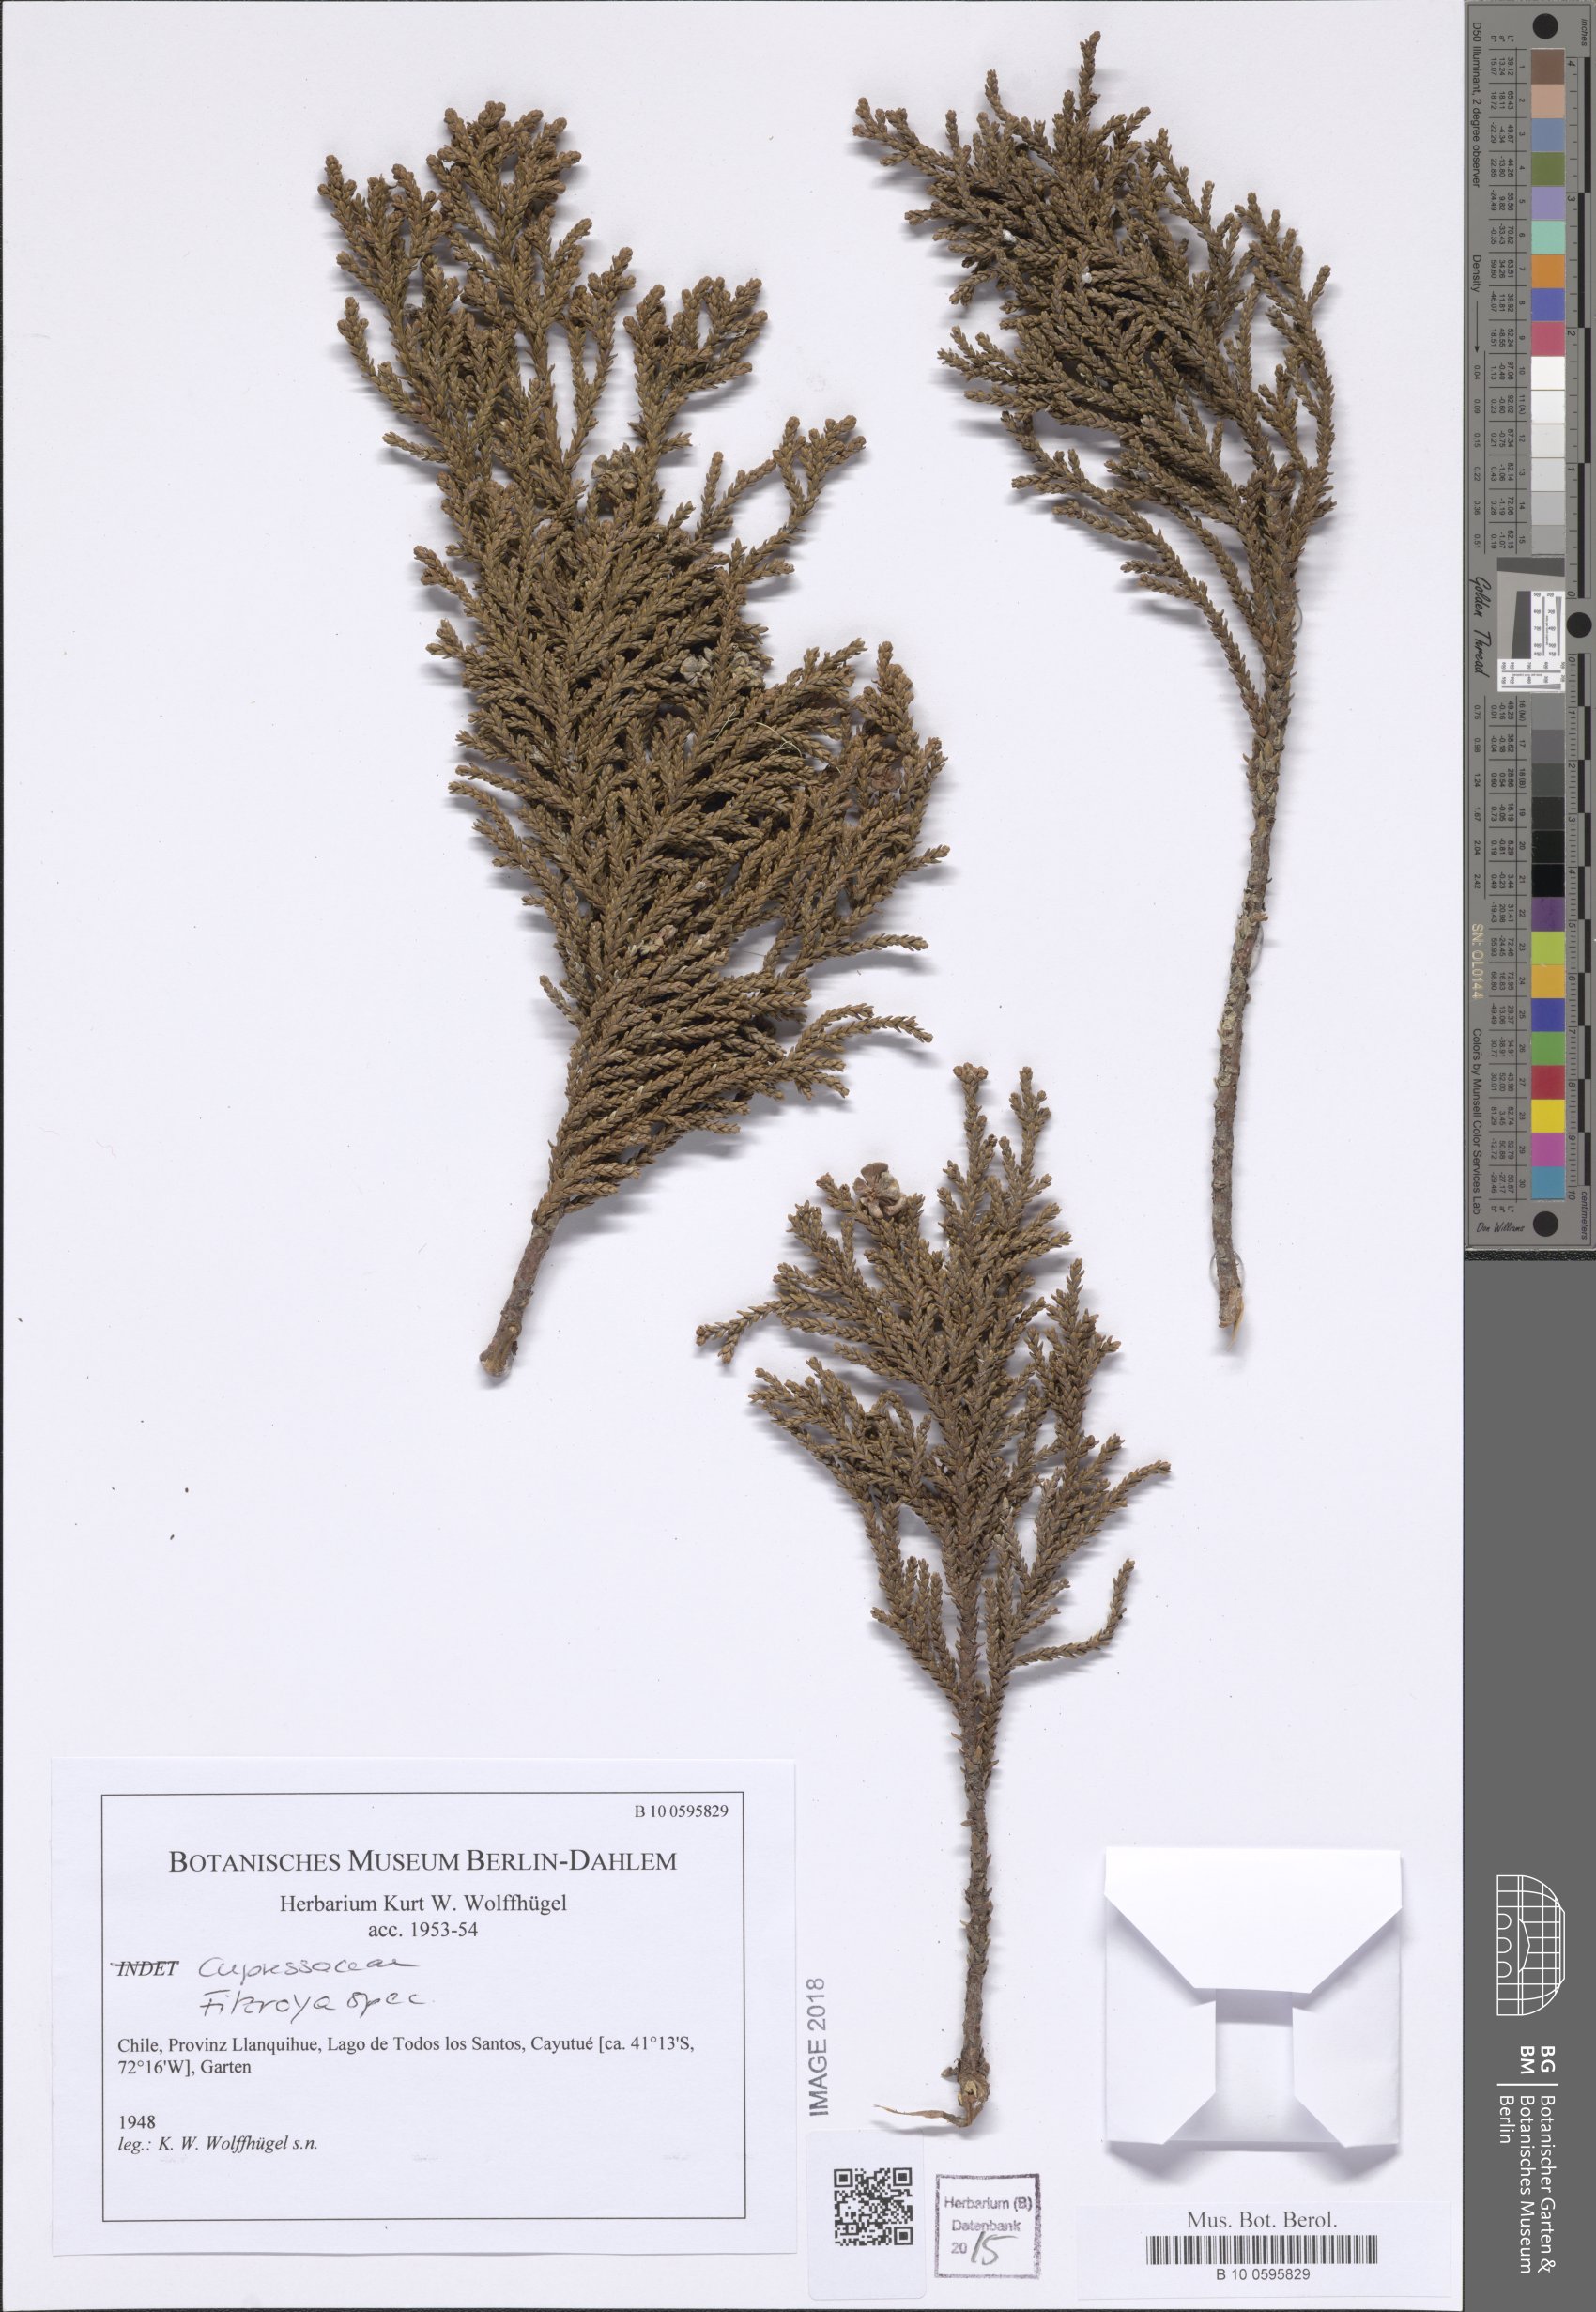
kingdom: Plantae
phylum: Tracheophyta
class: Pinopsida
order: Pinales
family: Cupressaceae
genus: Fitzroya
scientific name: Fitzroya
